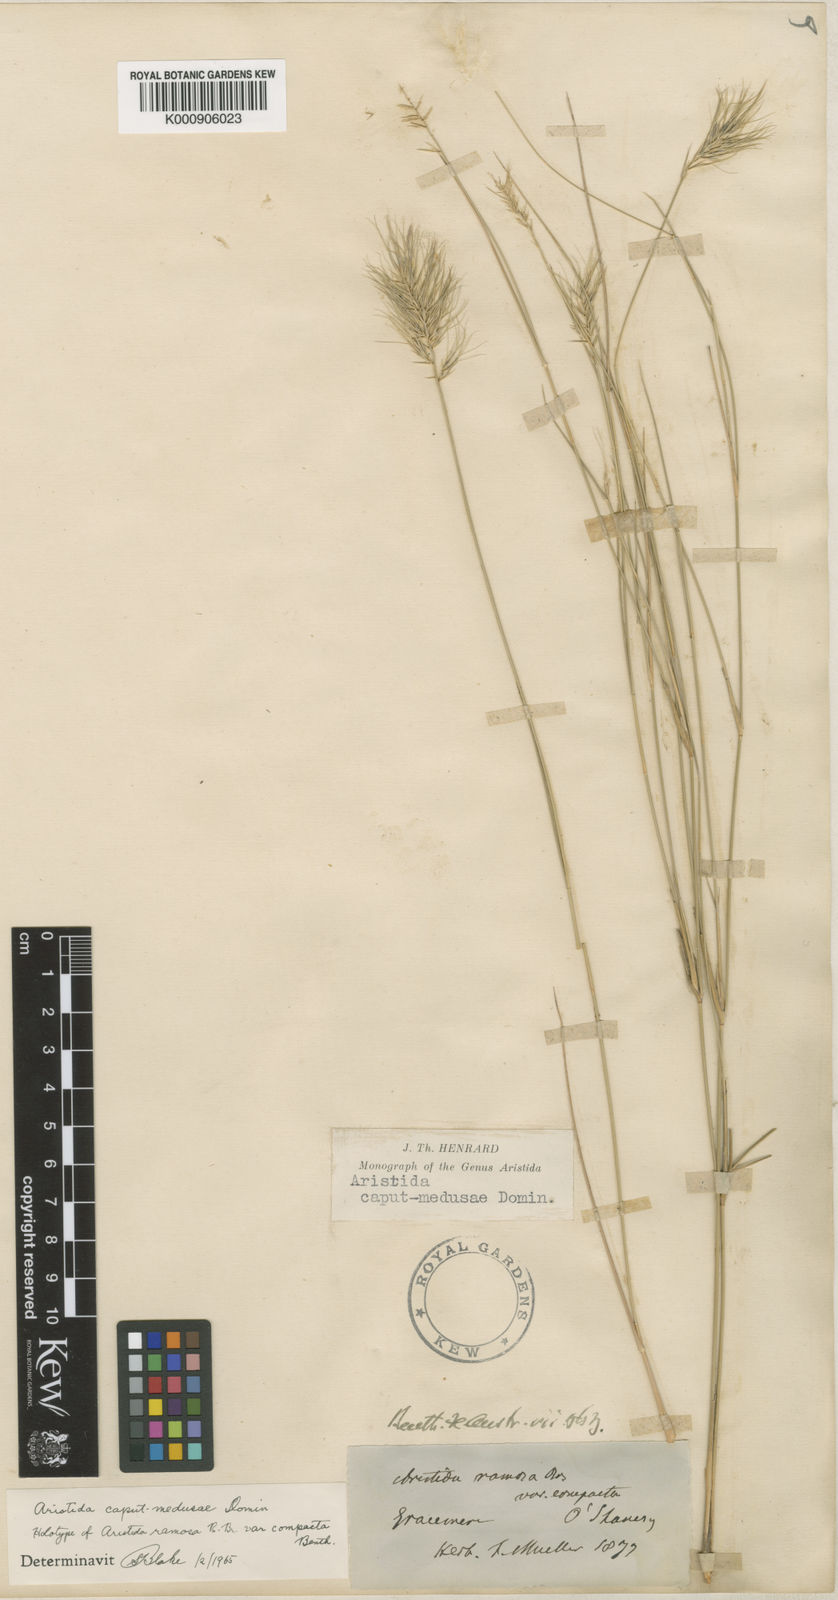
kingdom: Plantae
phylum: Tracheophyta
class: Liliopsida
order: Poales
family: Poaceae
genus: Aristida
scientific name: Aristida caput-medusae
